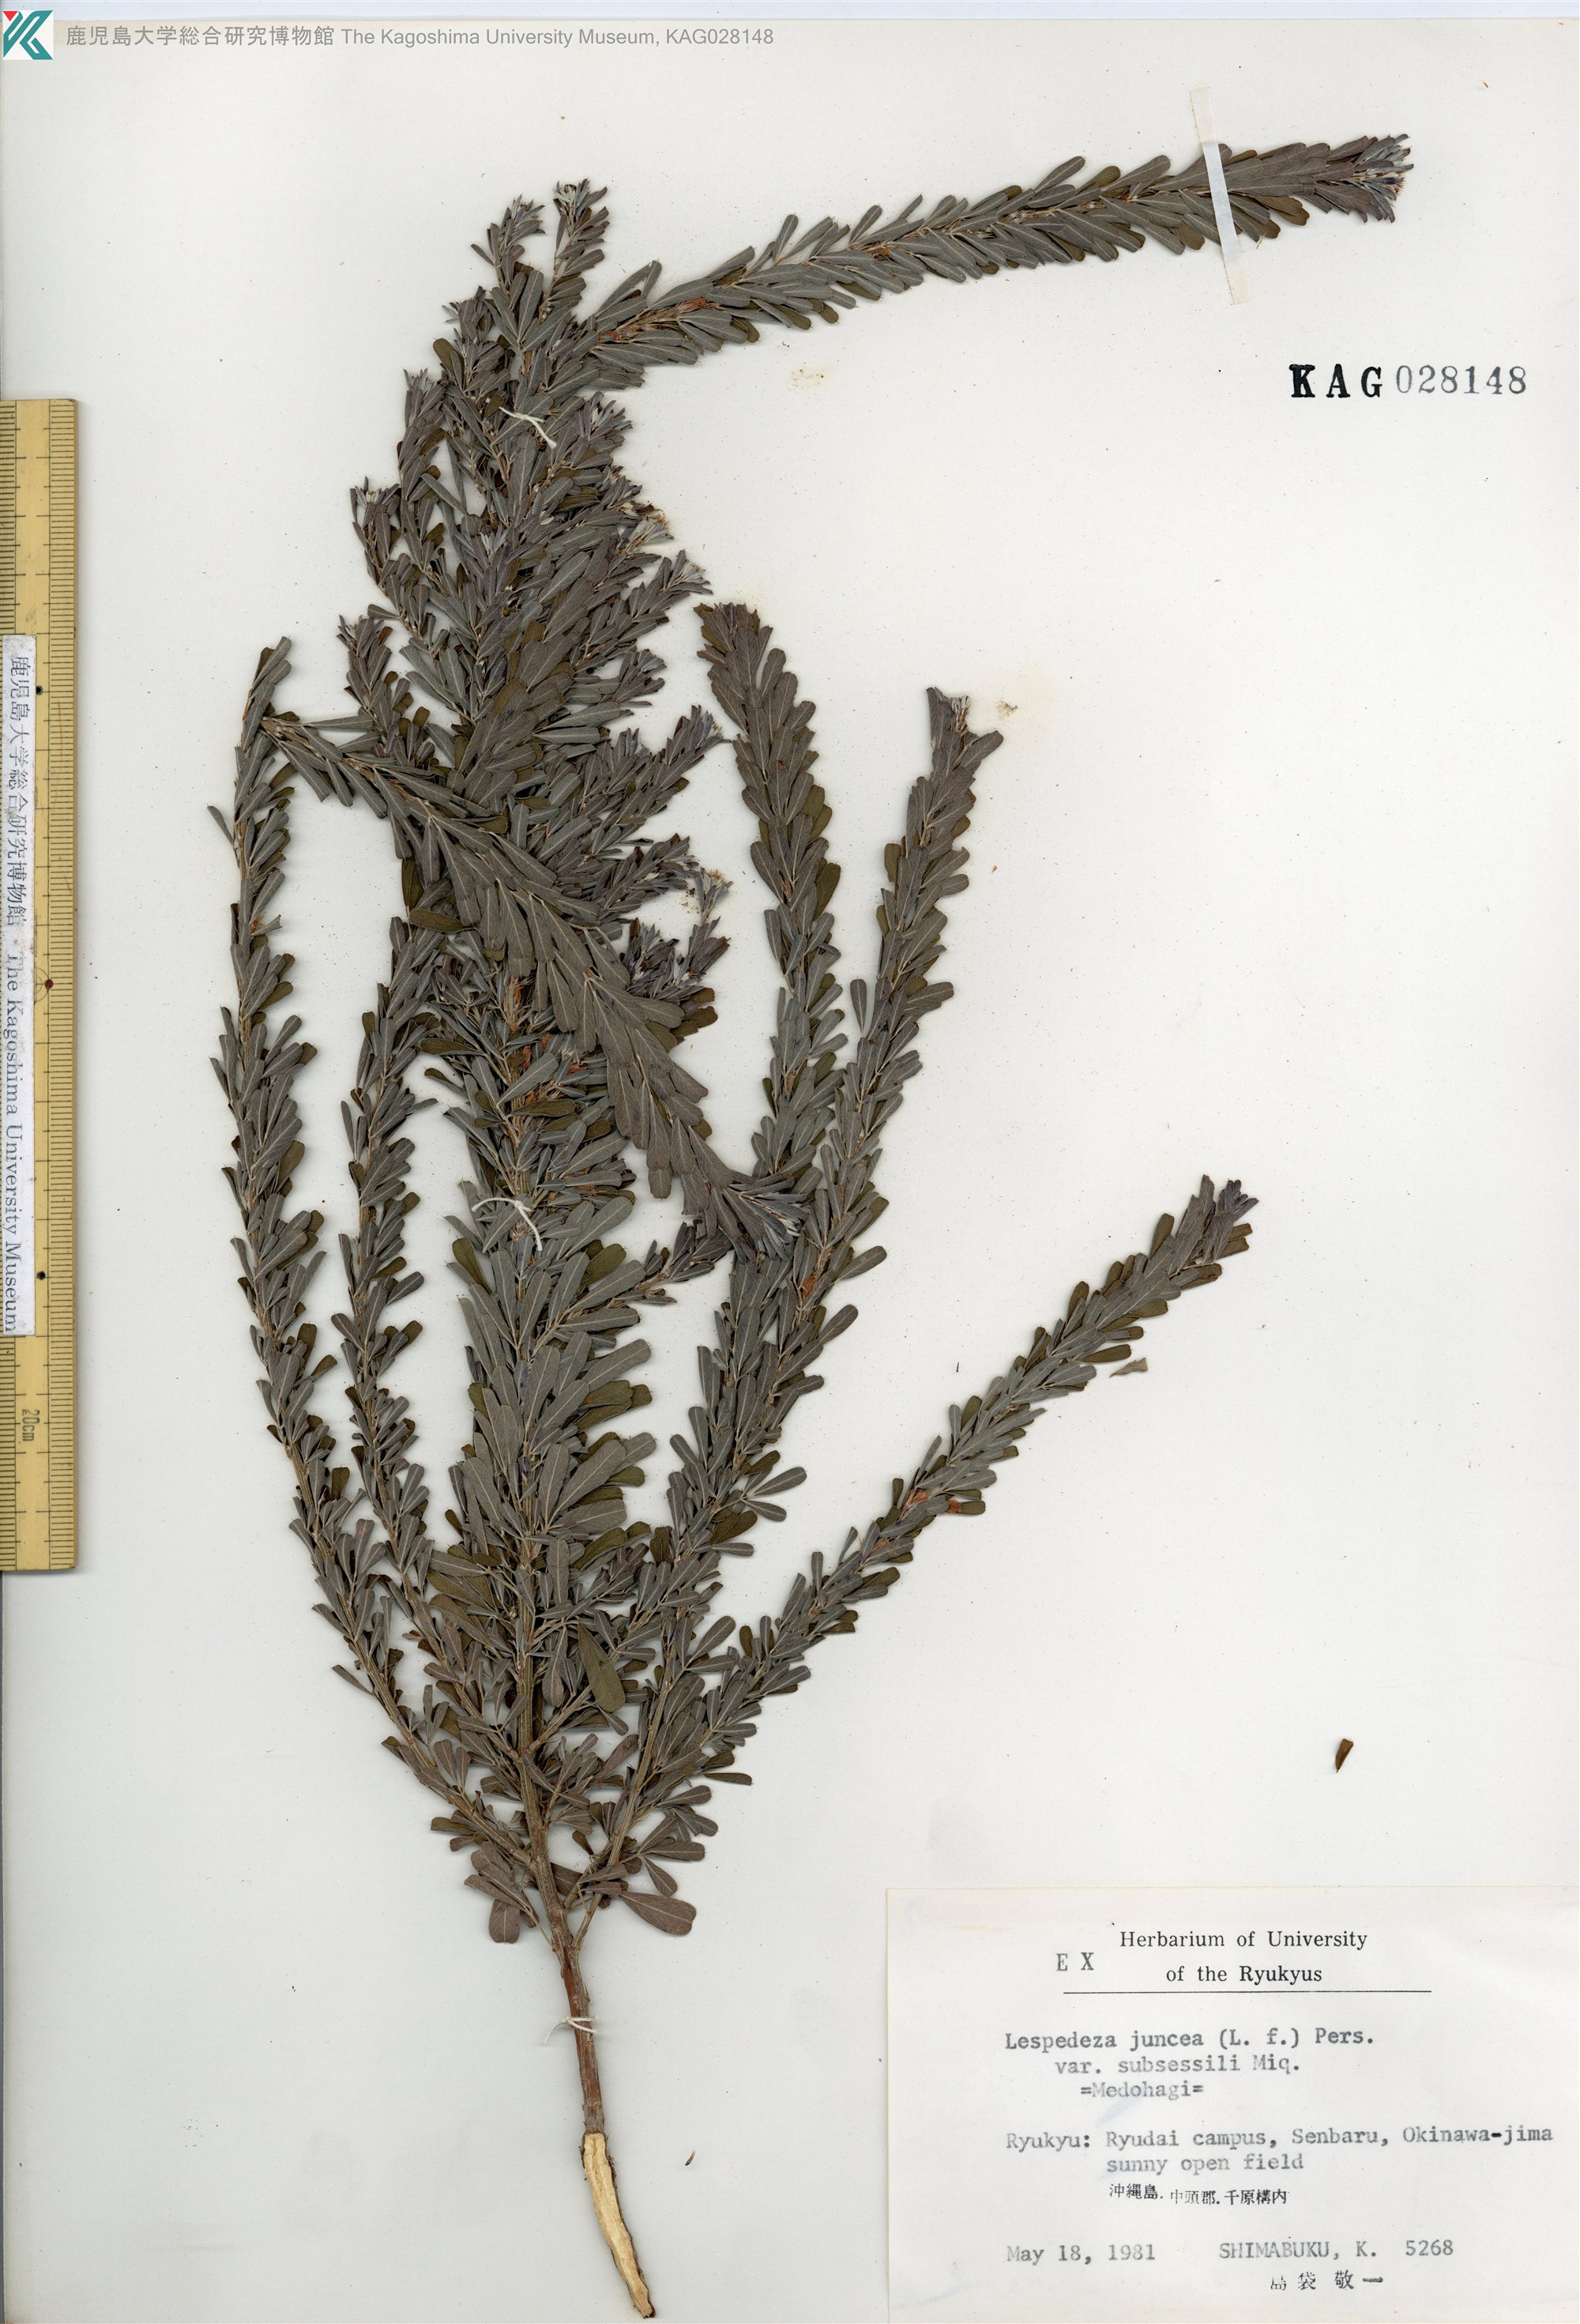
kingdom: Plantae
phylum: Tracheophyta
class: Magnoliopsida
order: Fabales
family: Fabaceae
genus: Lespedeza
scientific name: Lespedeza cuneata
